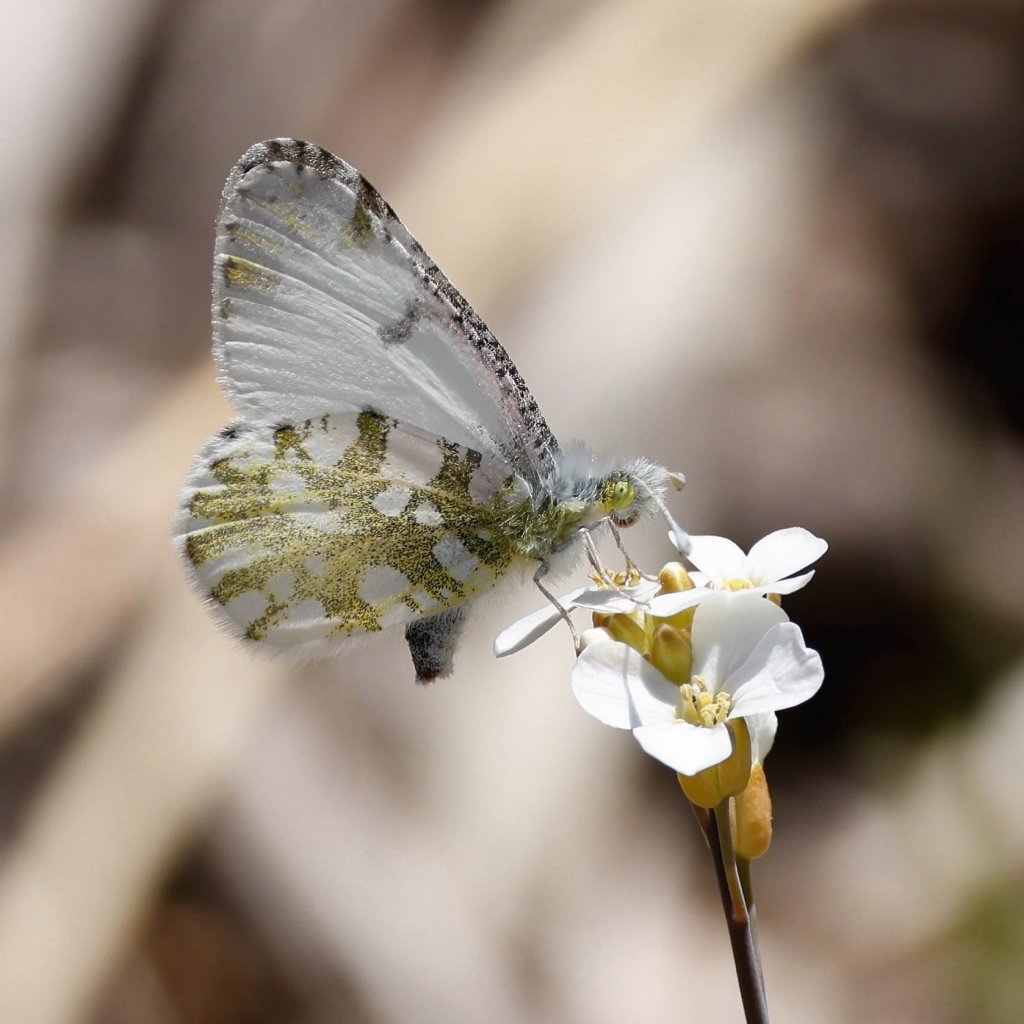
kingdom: Animalia
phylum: Arthropoda
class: Insecta
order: Lepidoptera
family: Pieridae
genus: Euchloe
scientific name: Euchloe olympia
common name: Olympia Marble
